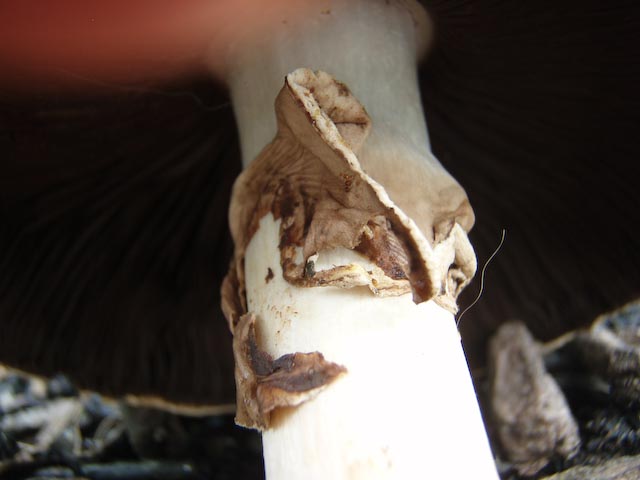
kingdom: Fungi
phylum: Basidiomycota
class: Agaricomycetes
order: Agaricales
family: Agaricaceae
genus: Agaricus
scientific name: Agaricus xanthodermus
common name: karbol-champignon
